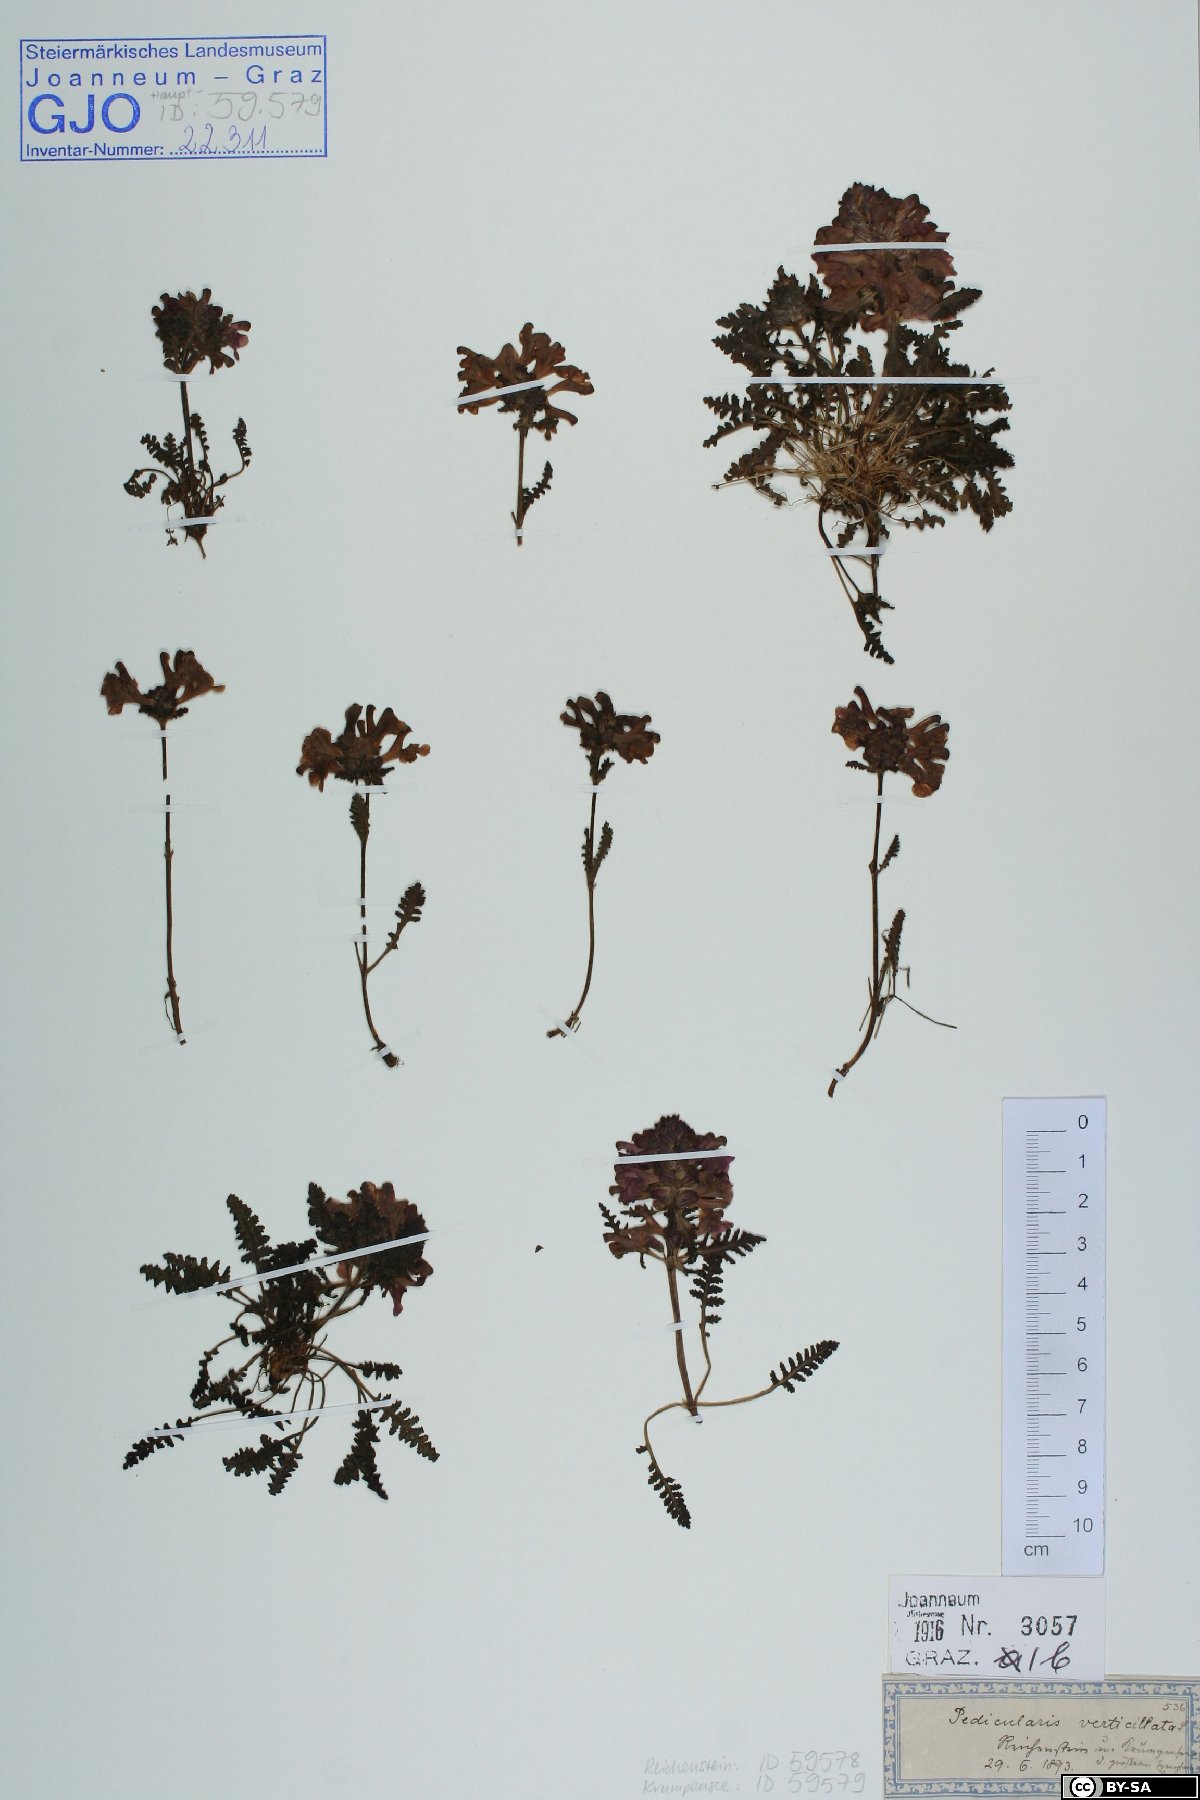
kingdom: Plantae
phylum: Tracheophyta
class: Magnoliopsida
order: Lamiales
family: Orobanchaceae
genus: Pedicularis
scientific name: Pedicularis verticillata
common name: Whorled lousewort
